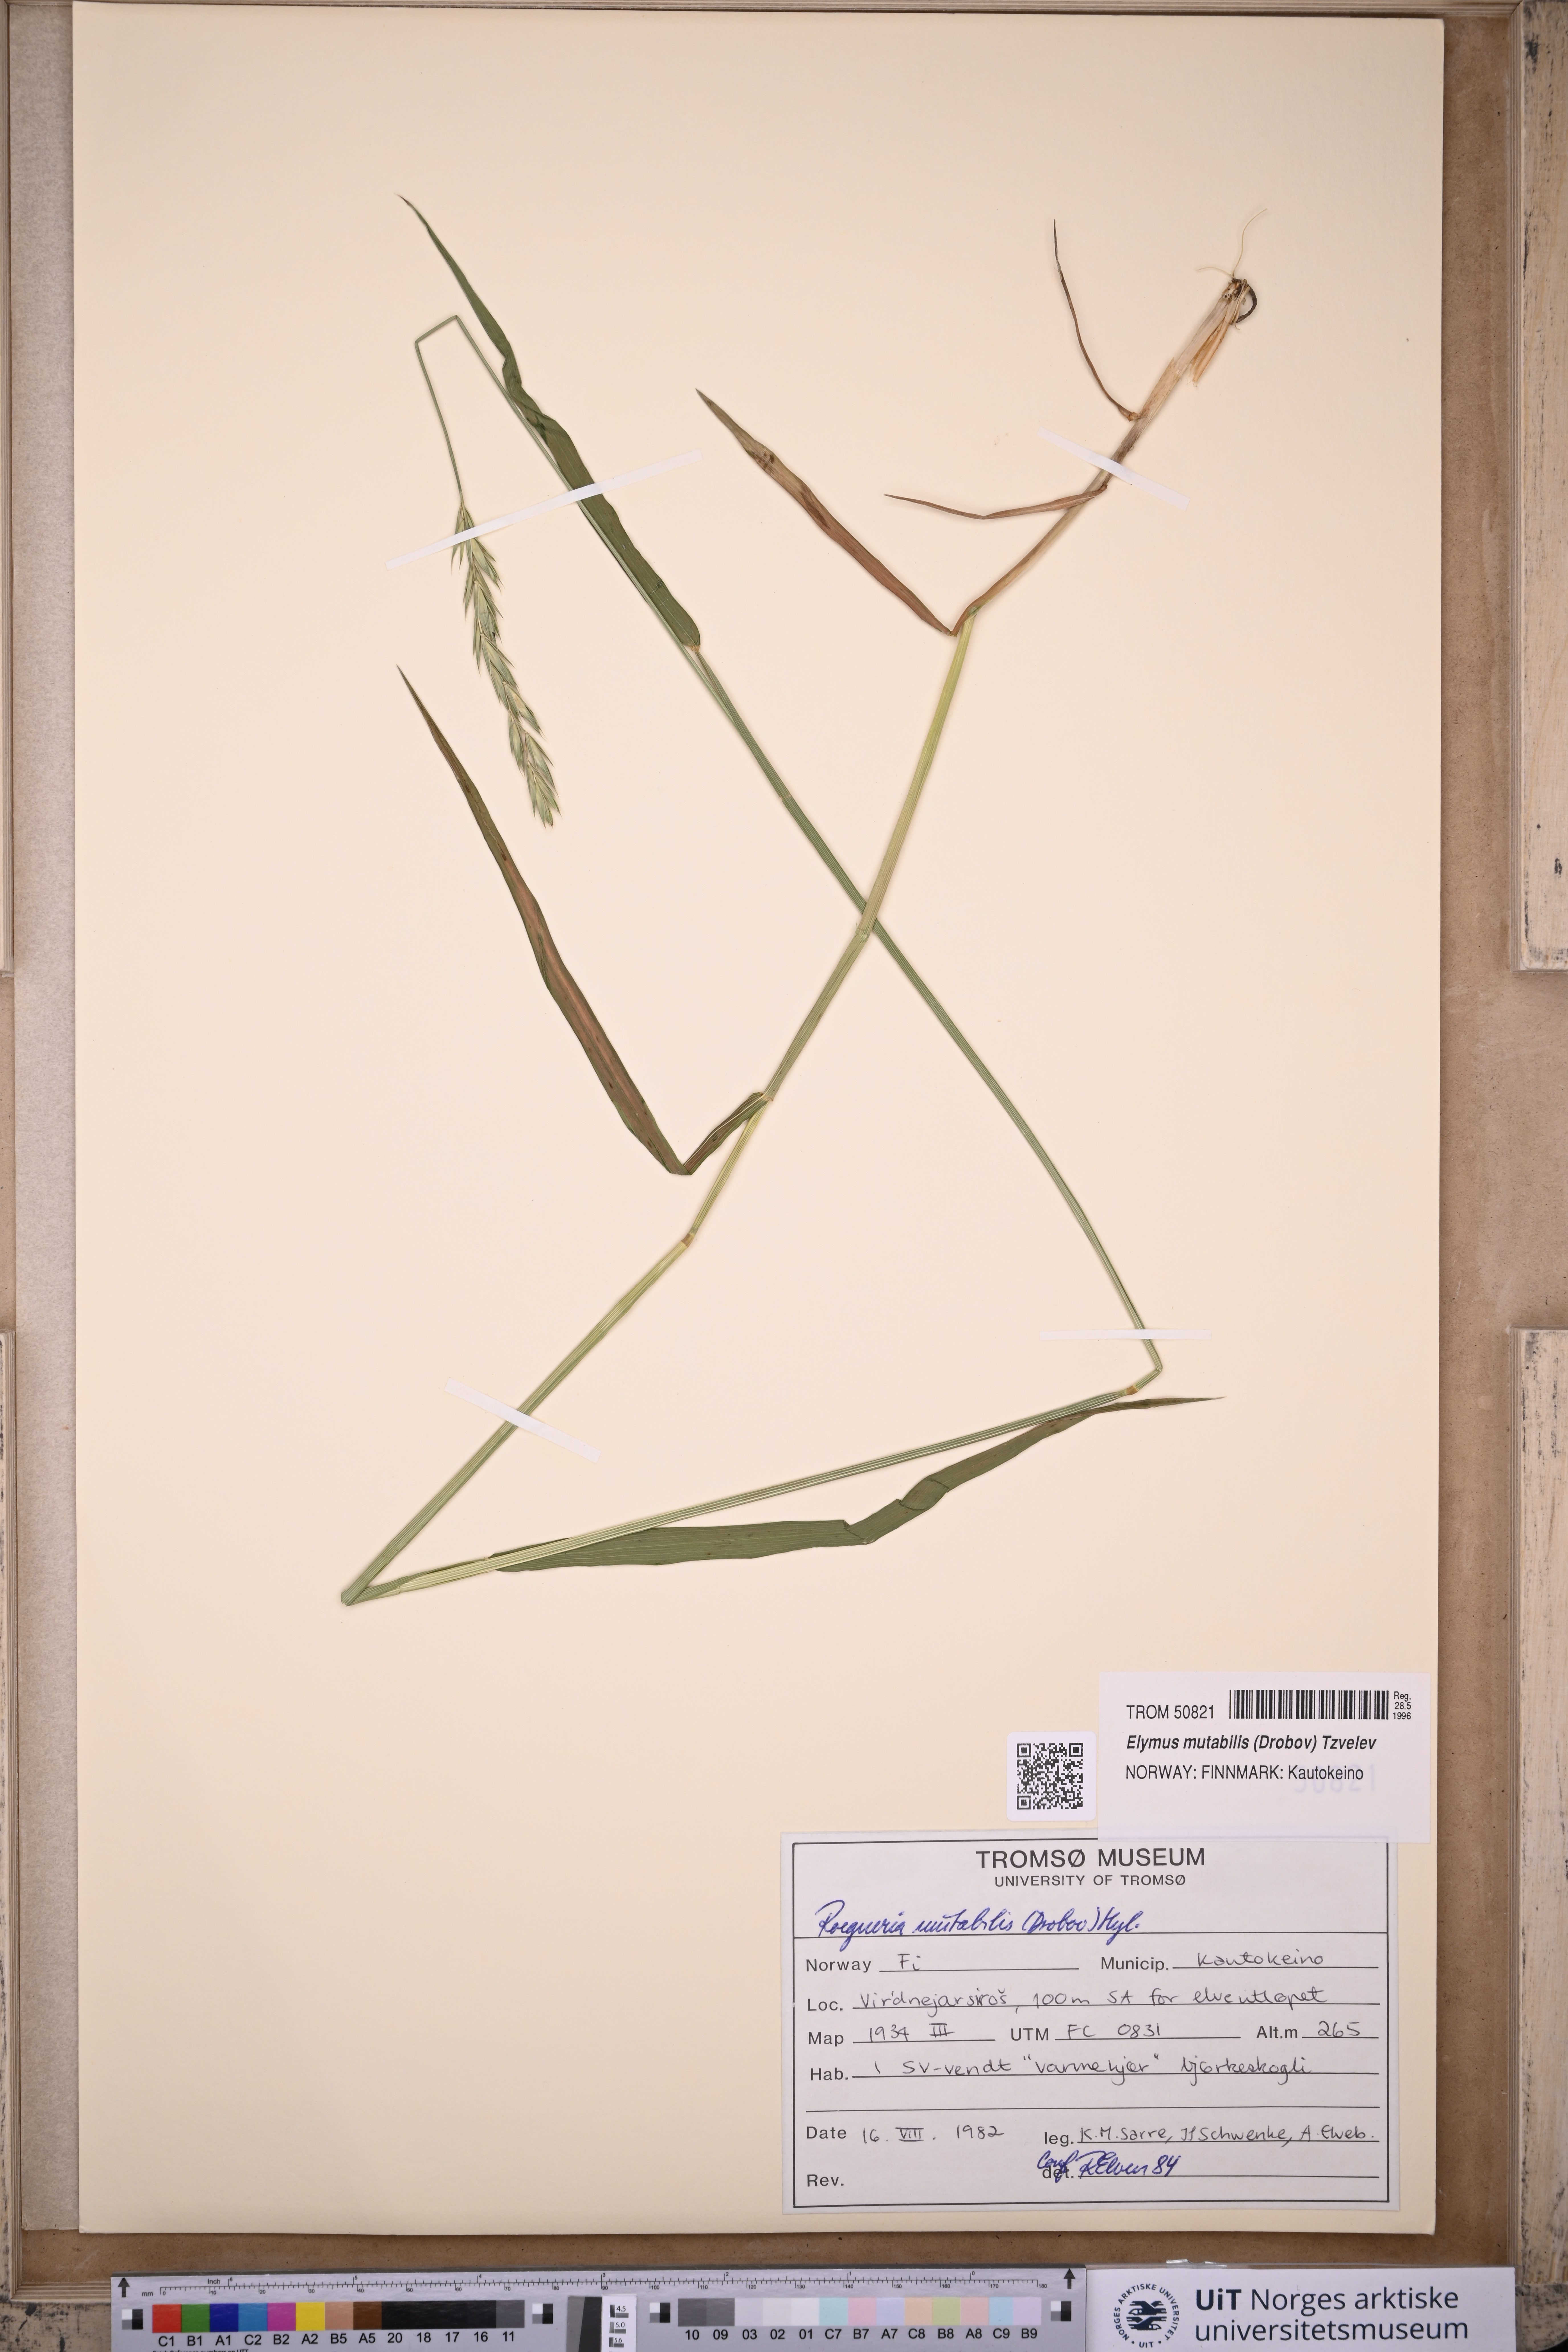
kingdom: Plantae
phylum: Tracheophyta
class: Liliopsida
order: Poales
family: Poaceae
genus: Elymus
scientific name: Elymus mutabilis
